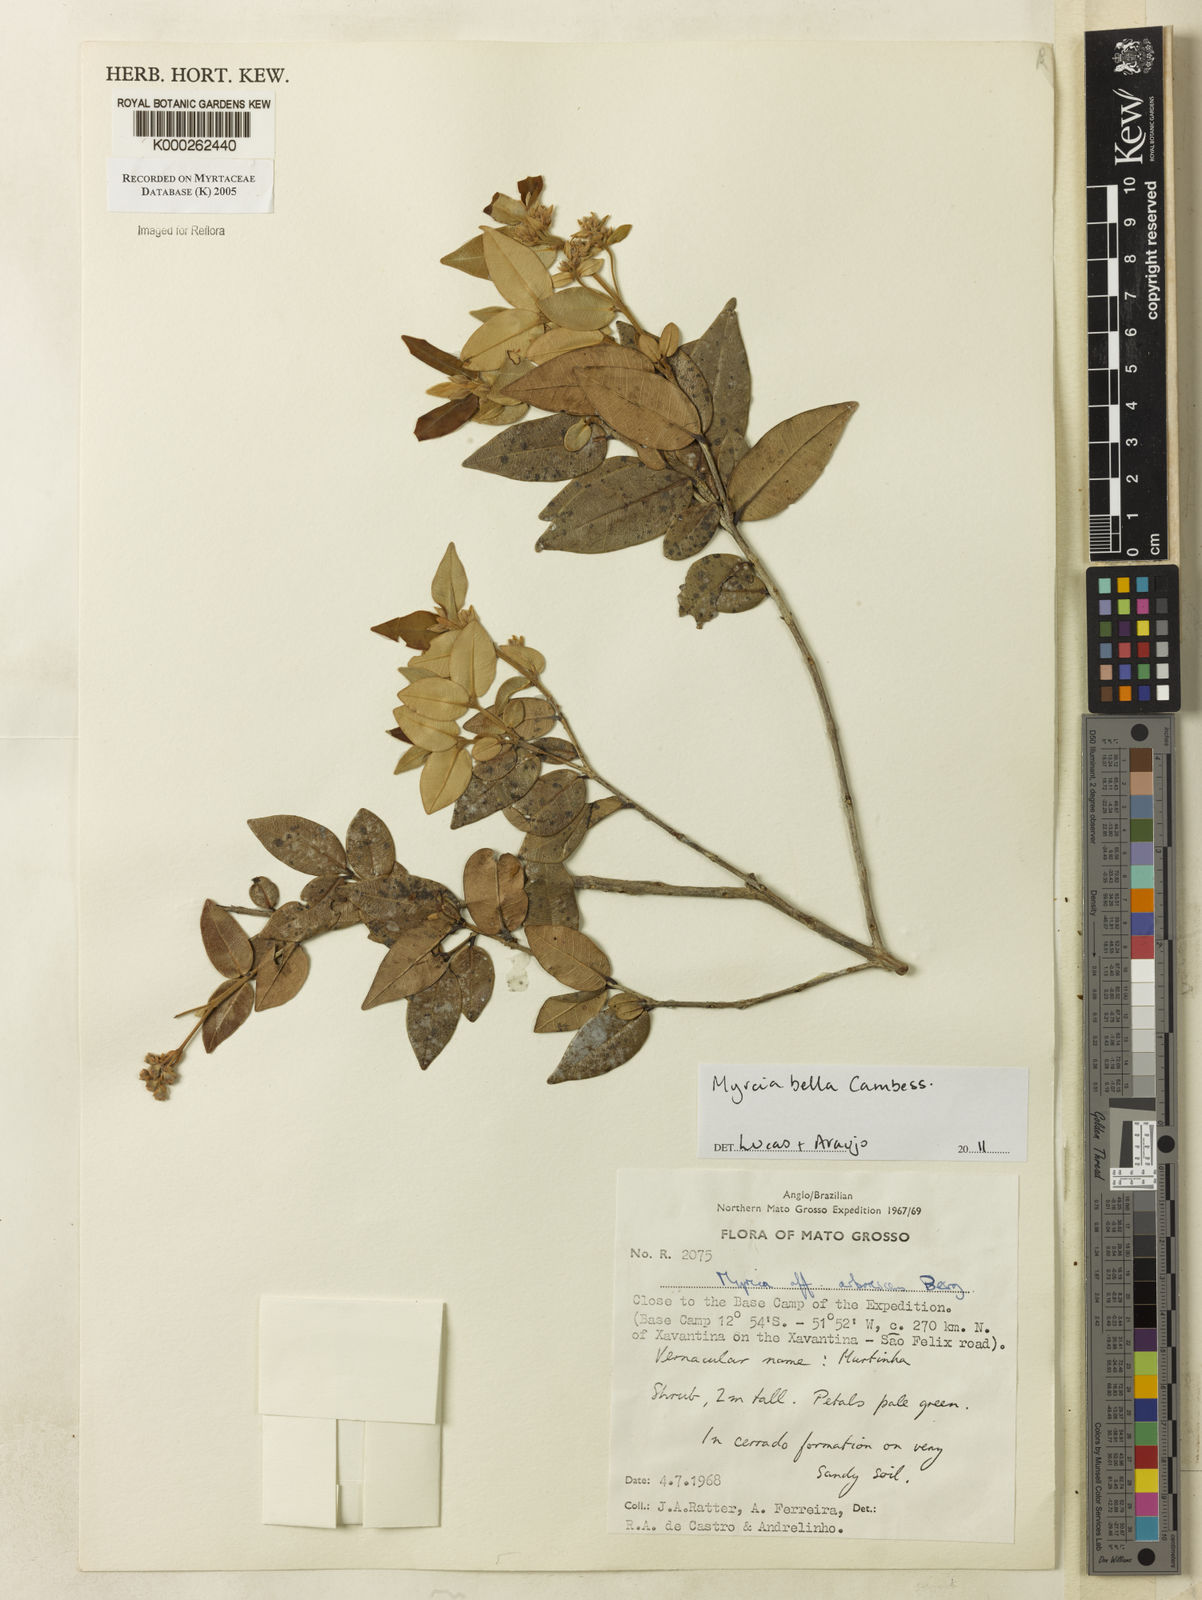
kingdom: Plantae
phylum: Tracheophyta
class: Magnoliopsida
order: Myrtales
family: Myrtaceae
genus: Myrcia
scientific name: Myrcia retorta
